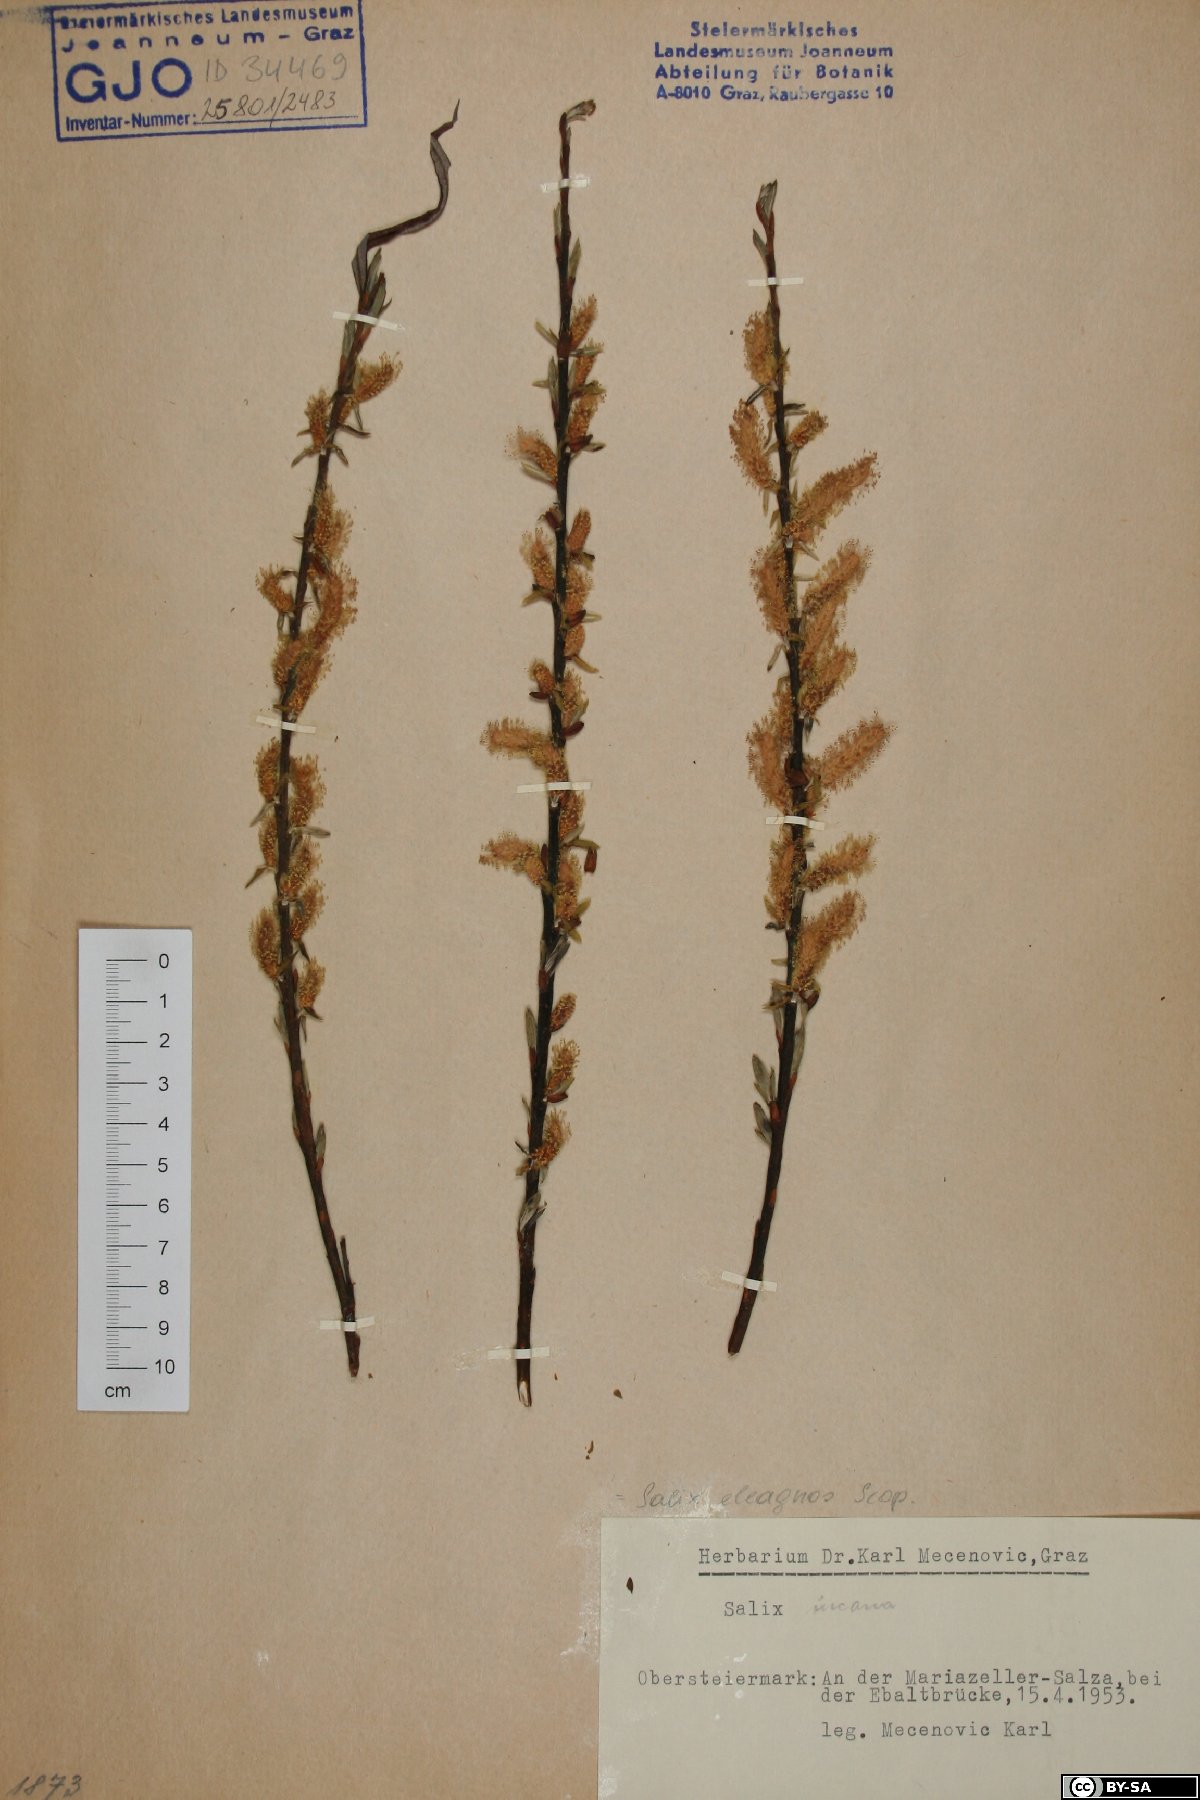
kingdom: Plantae
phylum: Tracheophyta
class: Magnoliopsida
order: Malpighiales
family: Salicaceae
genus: Salix
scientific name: Salix eleagnos
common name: Elaeagnus willow
